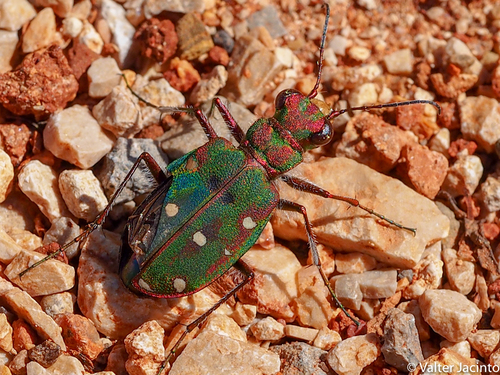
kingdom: Animalia
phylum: Arthropoda
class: Insecta
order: Coleoptera
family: Carabidae
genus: Cicindela
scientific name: Cicindela maroccana
